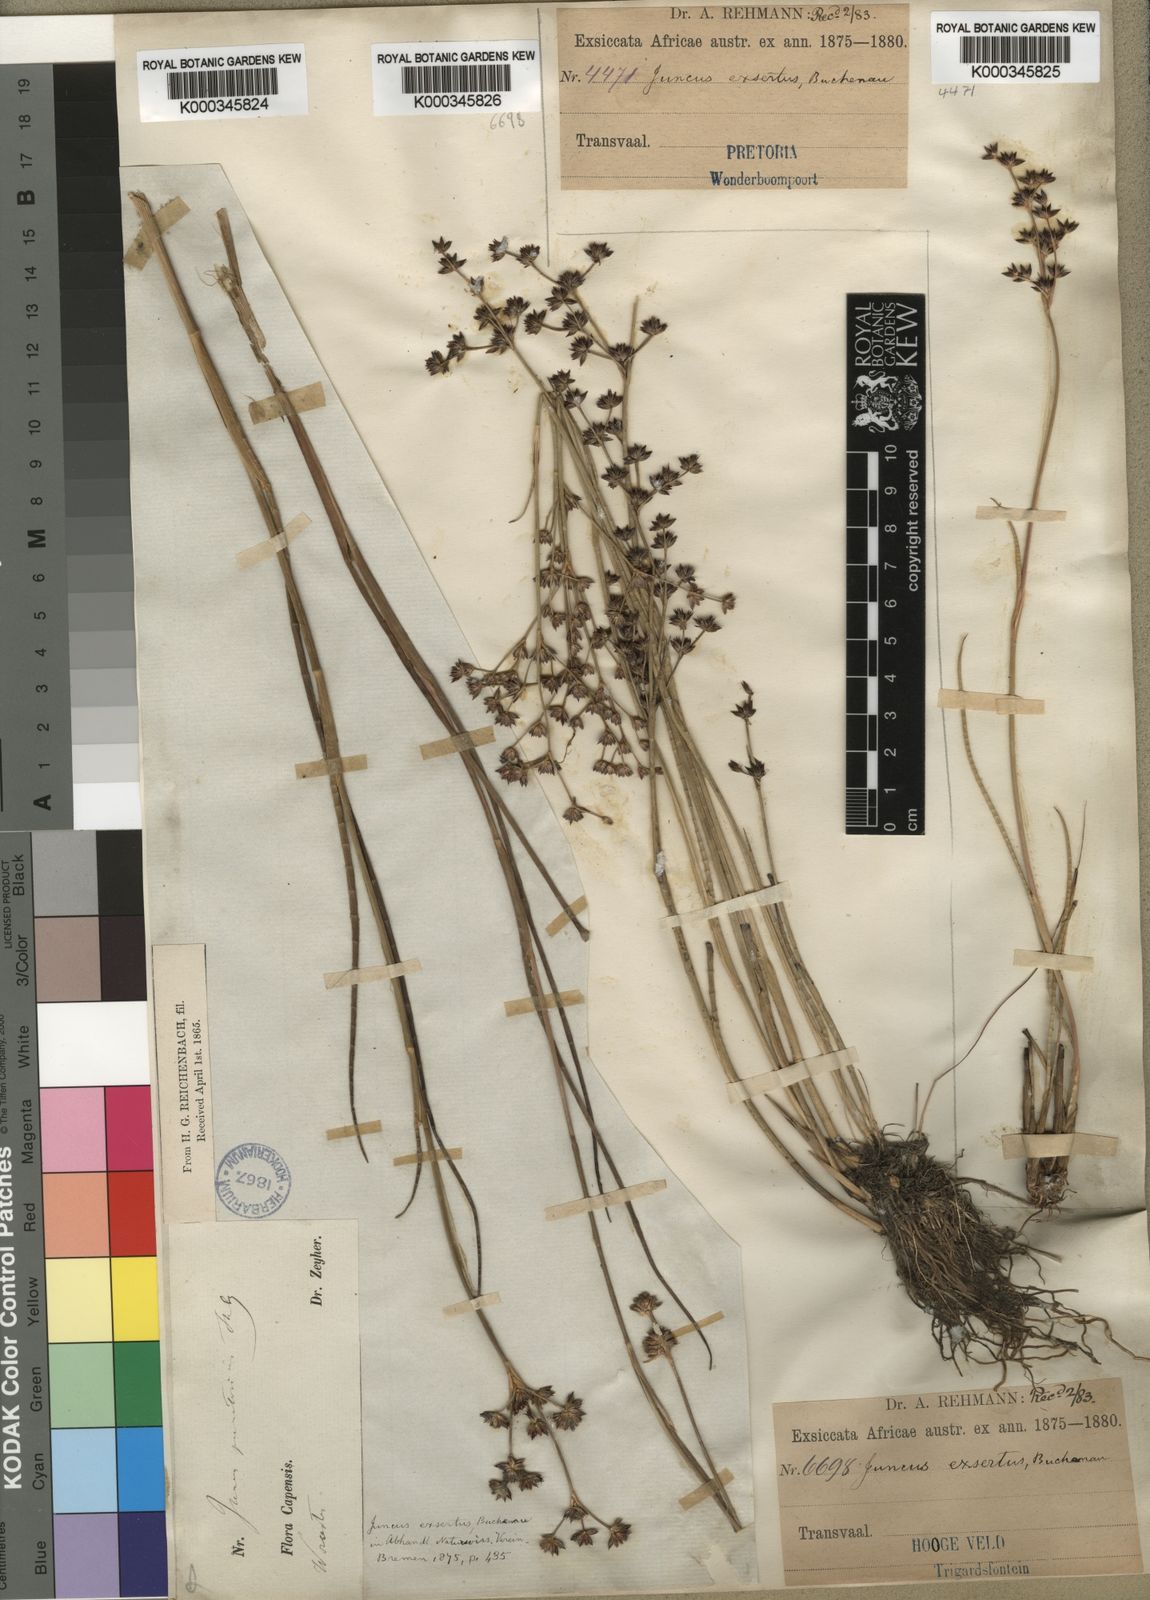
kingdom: Plantae
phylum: Tracheophyta
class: Liliopsida
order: Poales
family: Juncaceae
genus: Juncus
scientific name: Juncus exsertus
